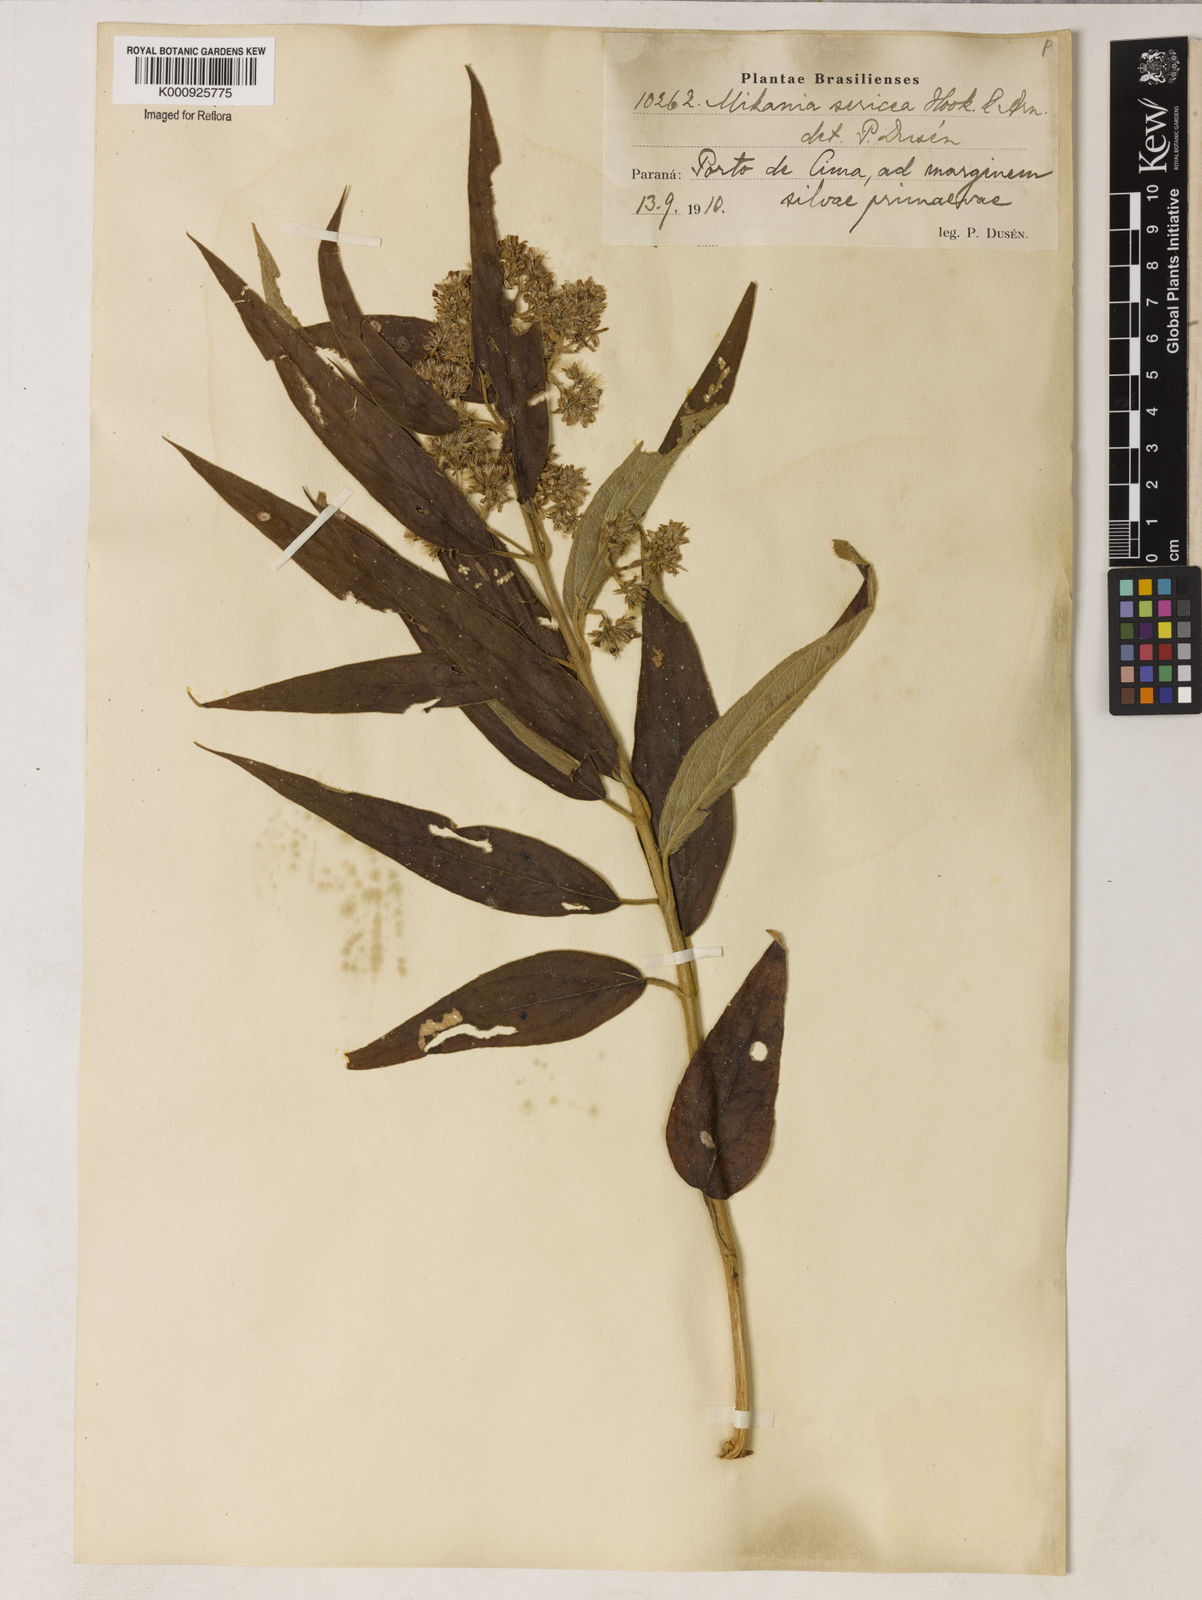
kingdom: Plantae
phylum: Tracheophyta
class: Magnoliopsida
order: Asterales
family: Asteraceae
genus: Mikania
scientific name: Mikania
